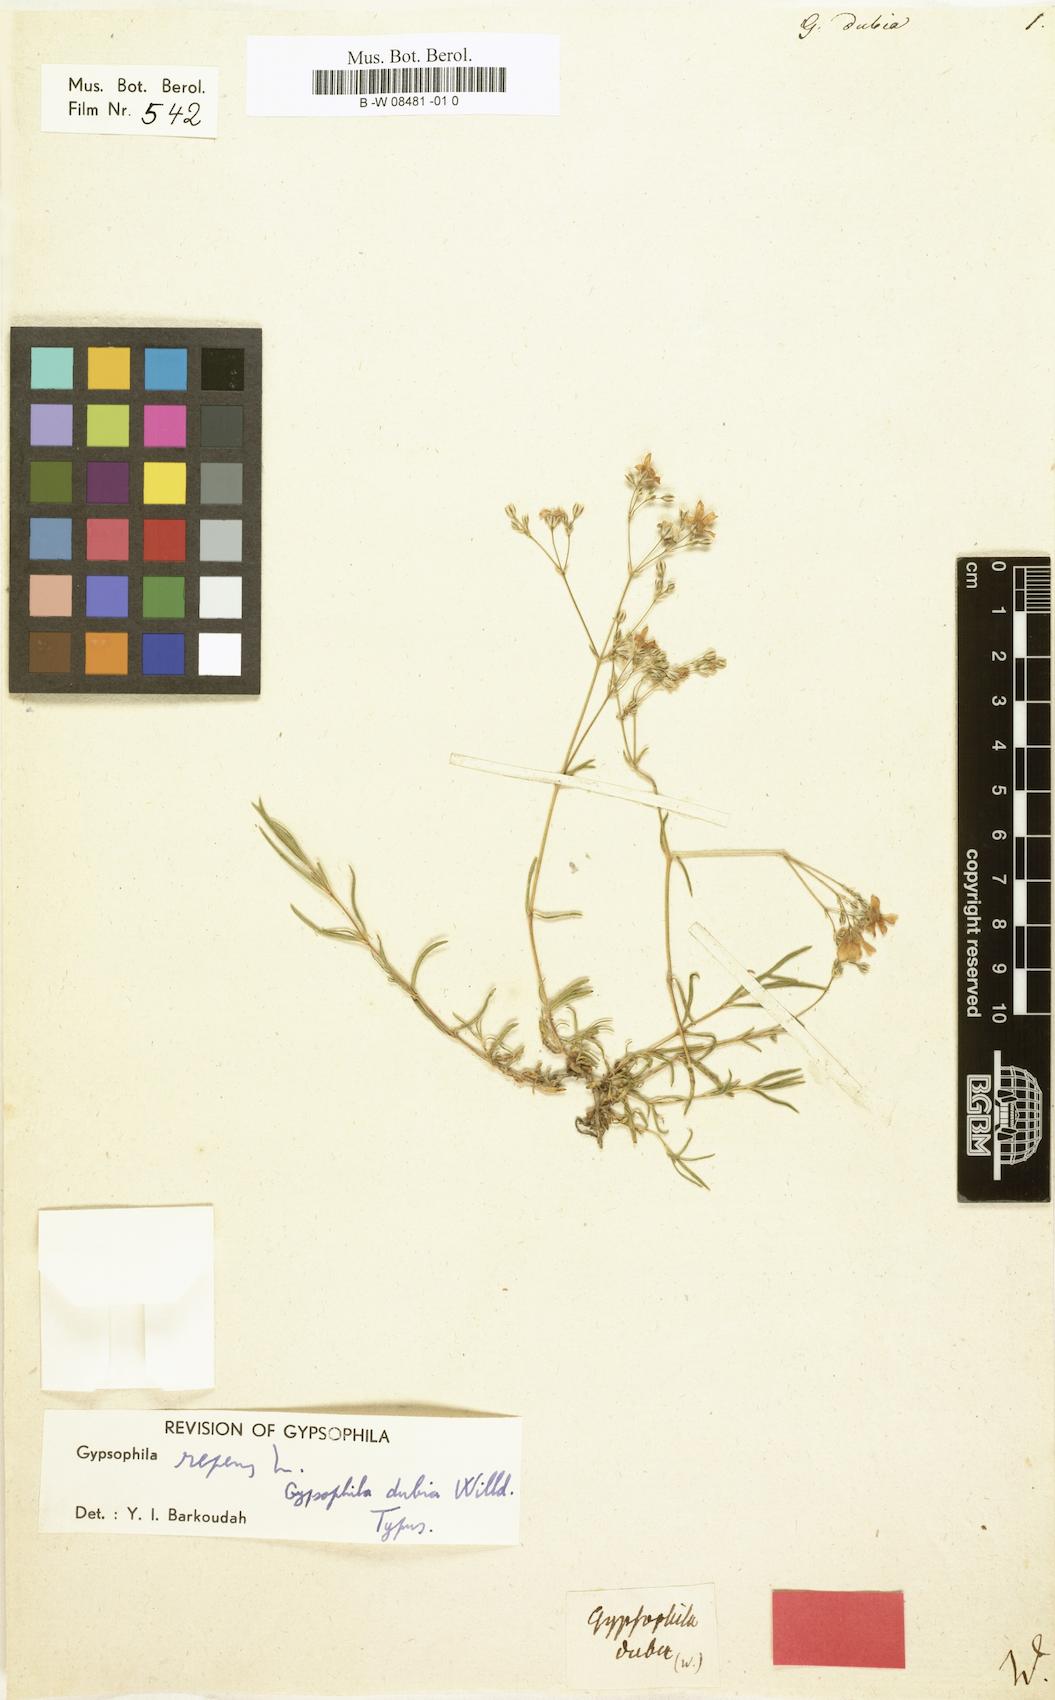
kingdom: Plantae
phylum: Tracheophyta
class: Magnoliopsida
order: Caryophyllales
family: Caryophyllaceae
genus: Gypsophila
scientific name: Gypsophila repens
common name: Creeping baby's-breath
